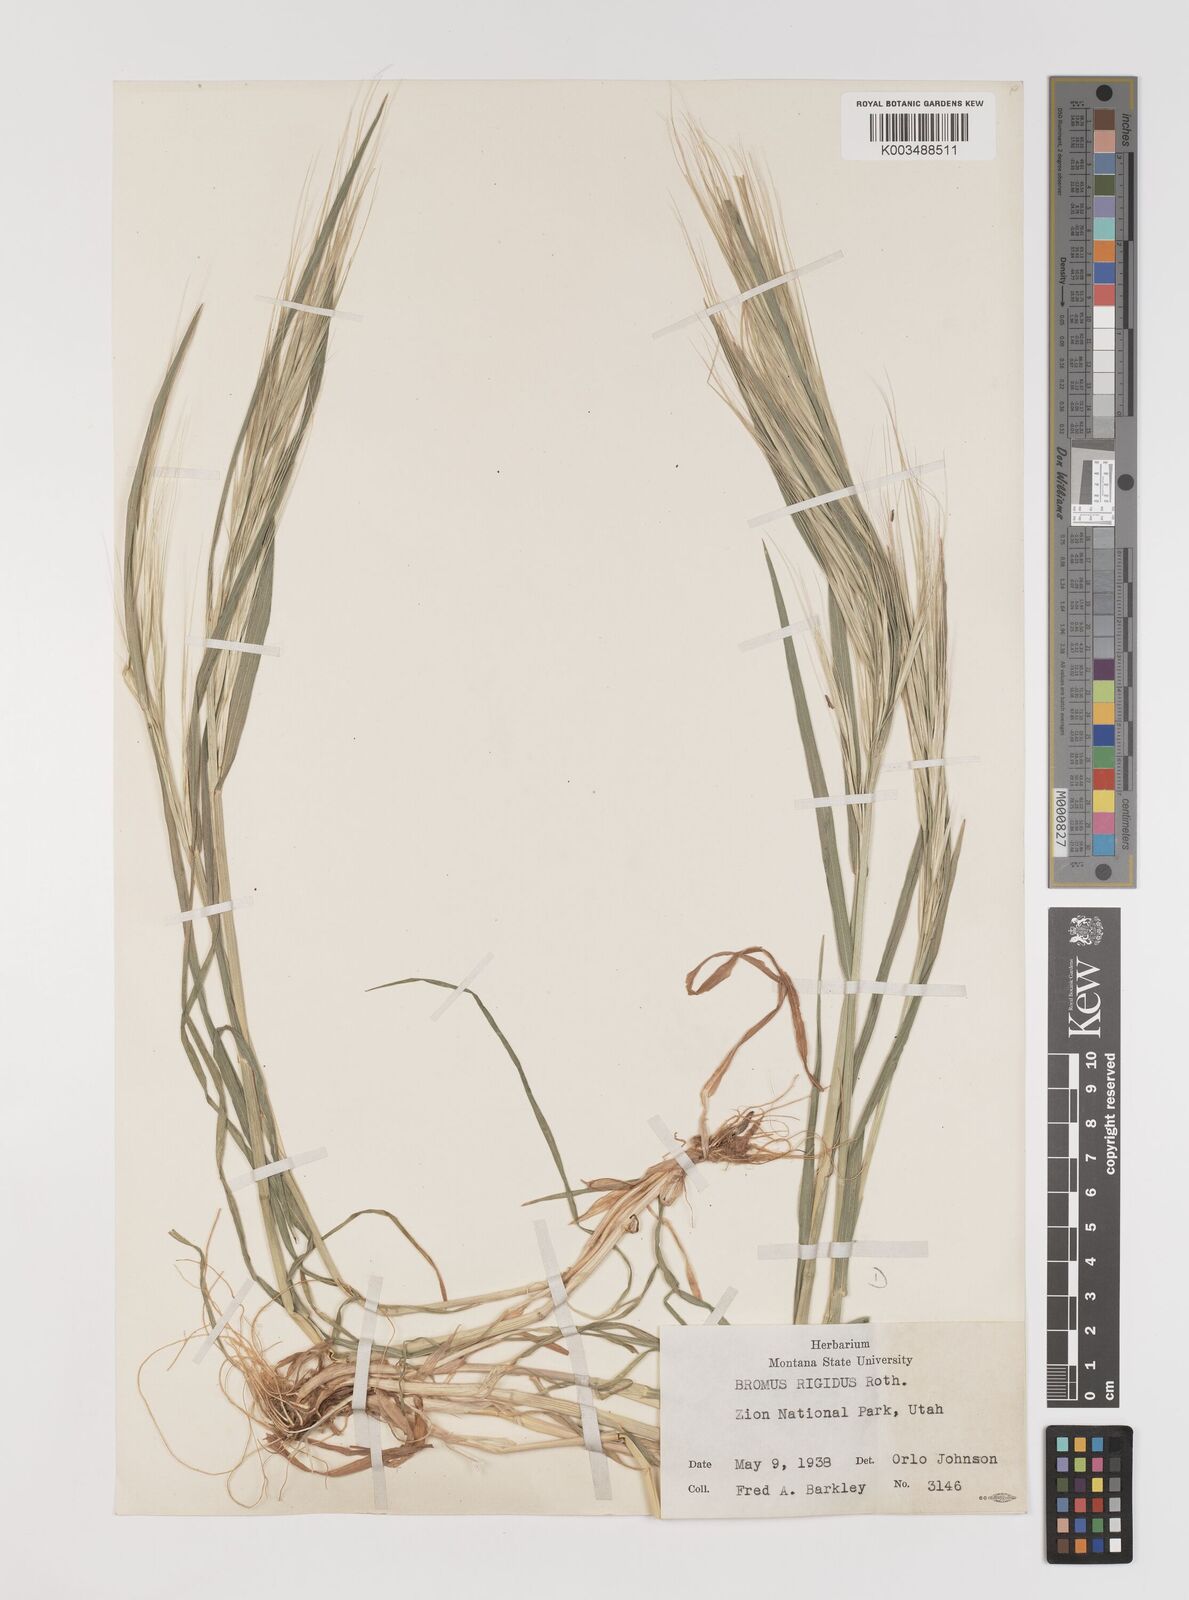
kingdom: Plantae
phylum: Tracheophyta
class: Liliopsida
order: Poales
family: Poaceae
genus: Bromus
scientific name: Bromus diandrus
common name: Ripgut brome
